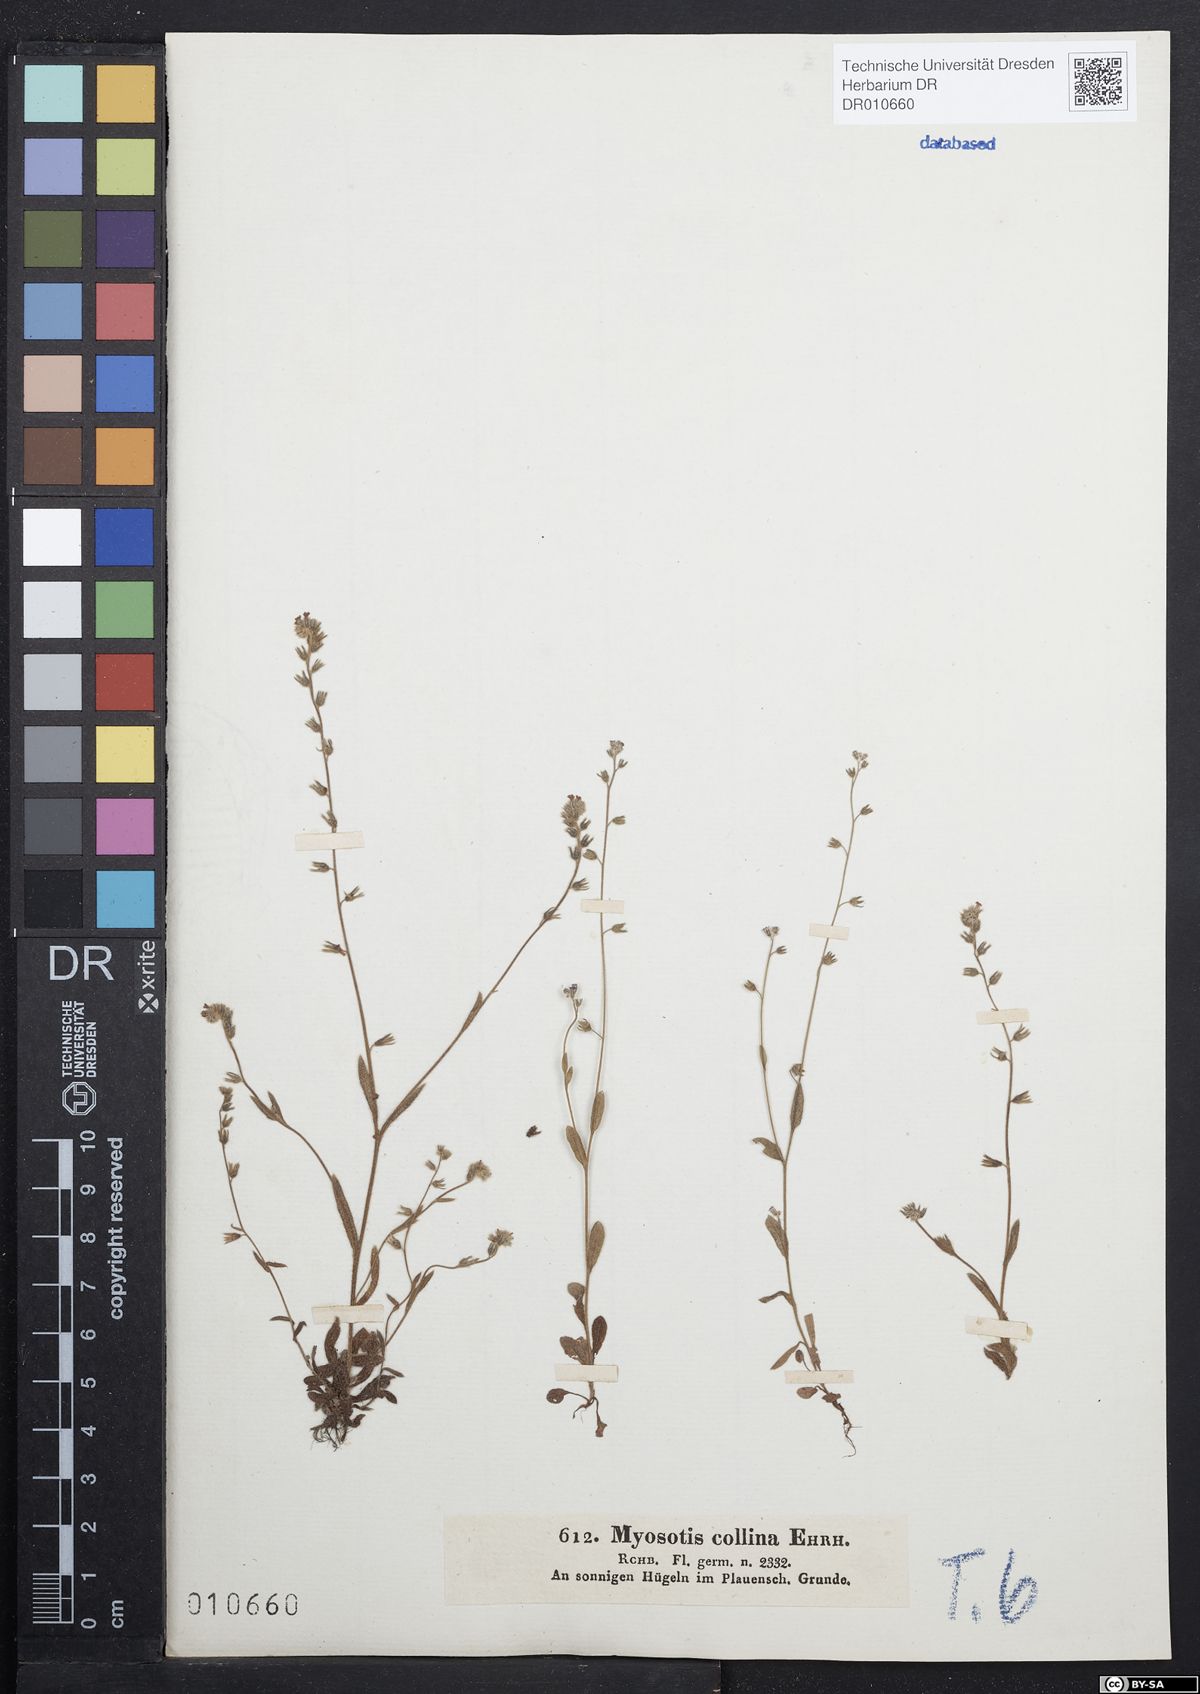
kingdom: Plantae
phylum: Tracheophyta
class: Magnoliopsida
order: Boraginales
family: Boraginaceae
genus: Myosotis
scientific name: Myosotis ramosissima
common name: Early forget-me-not
